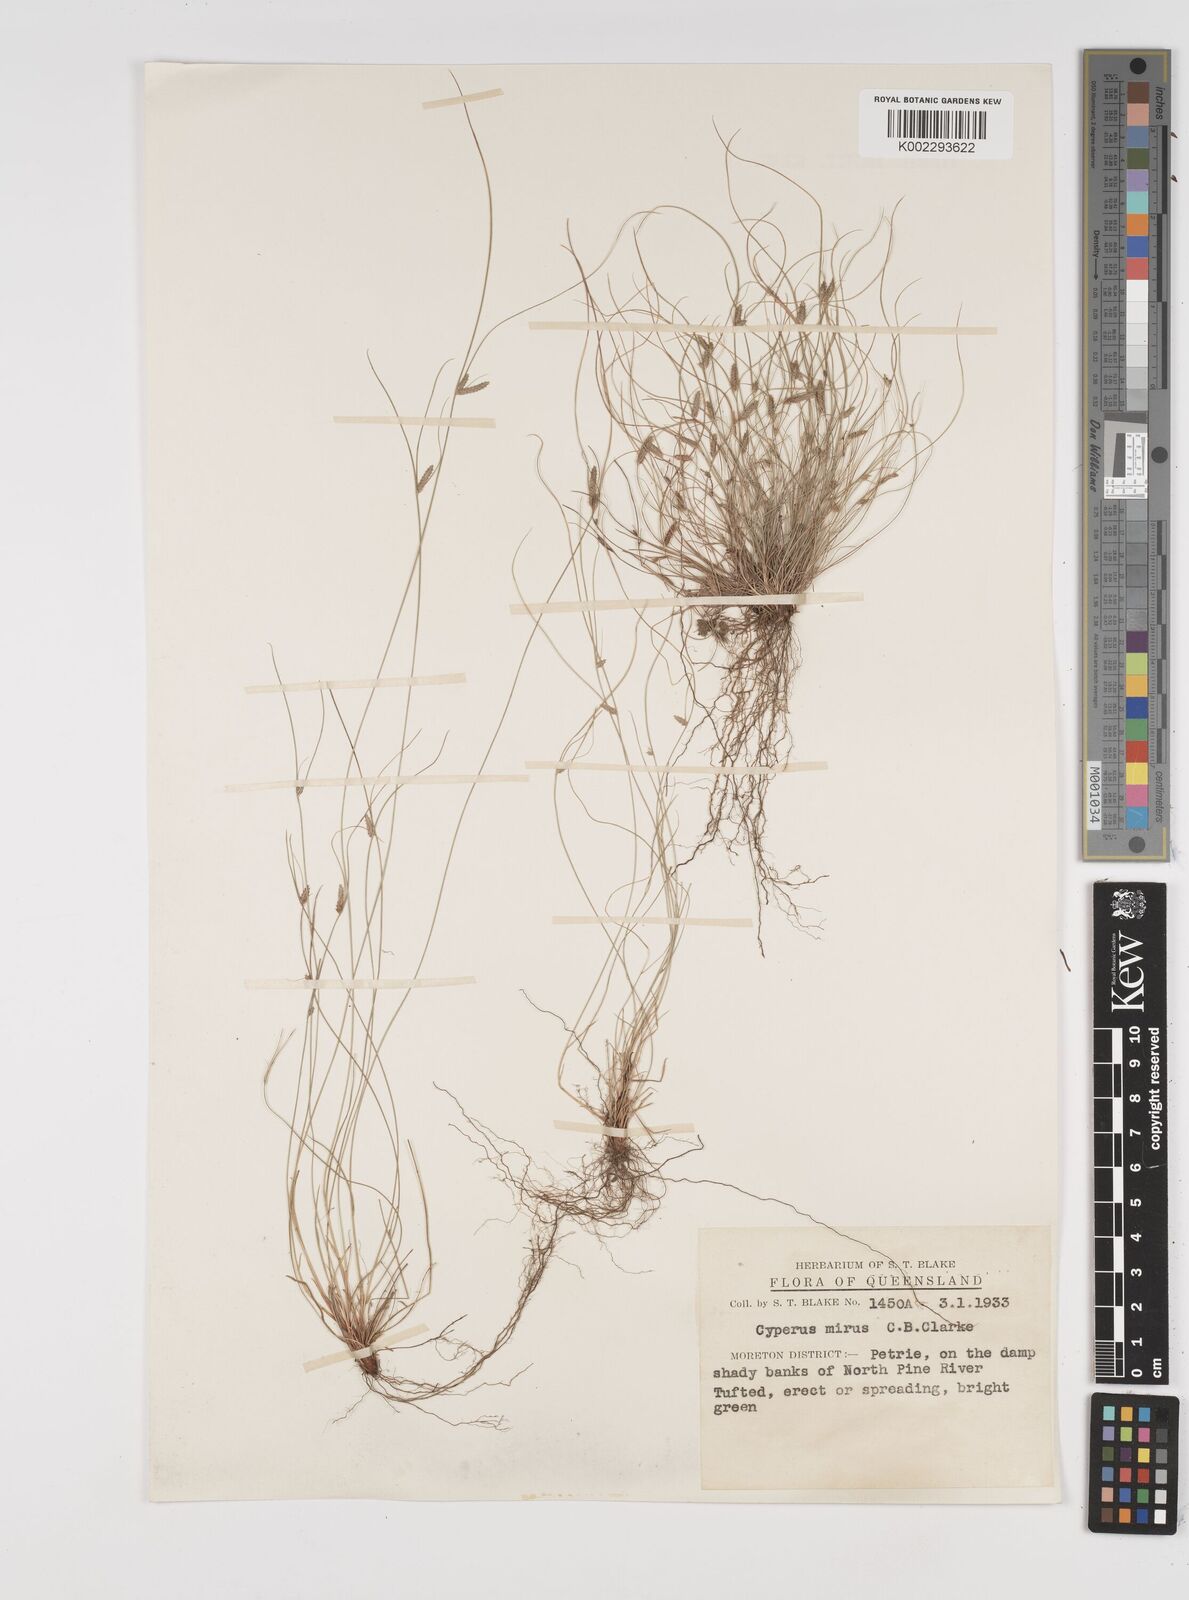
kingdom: Plantae
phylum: Tracheophyta
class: Liliopsida
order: Poales
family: Cyperaceae
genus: Cyperus
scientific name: Cyperus mirus
